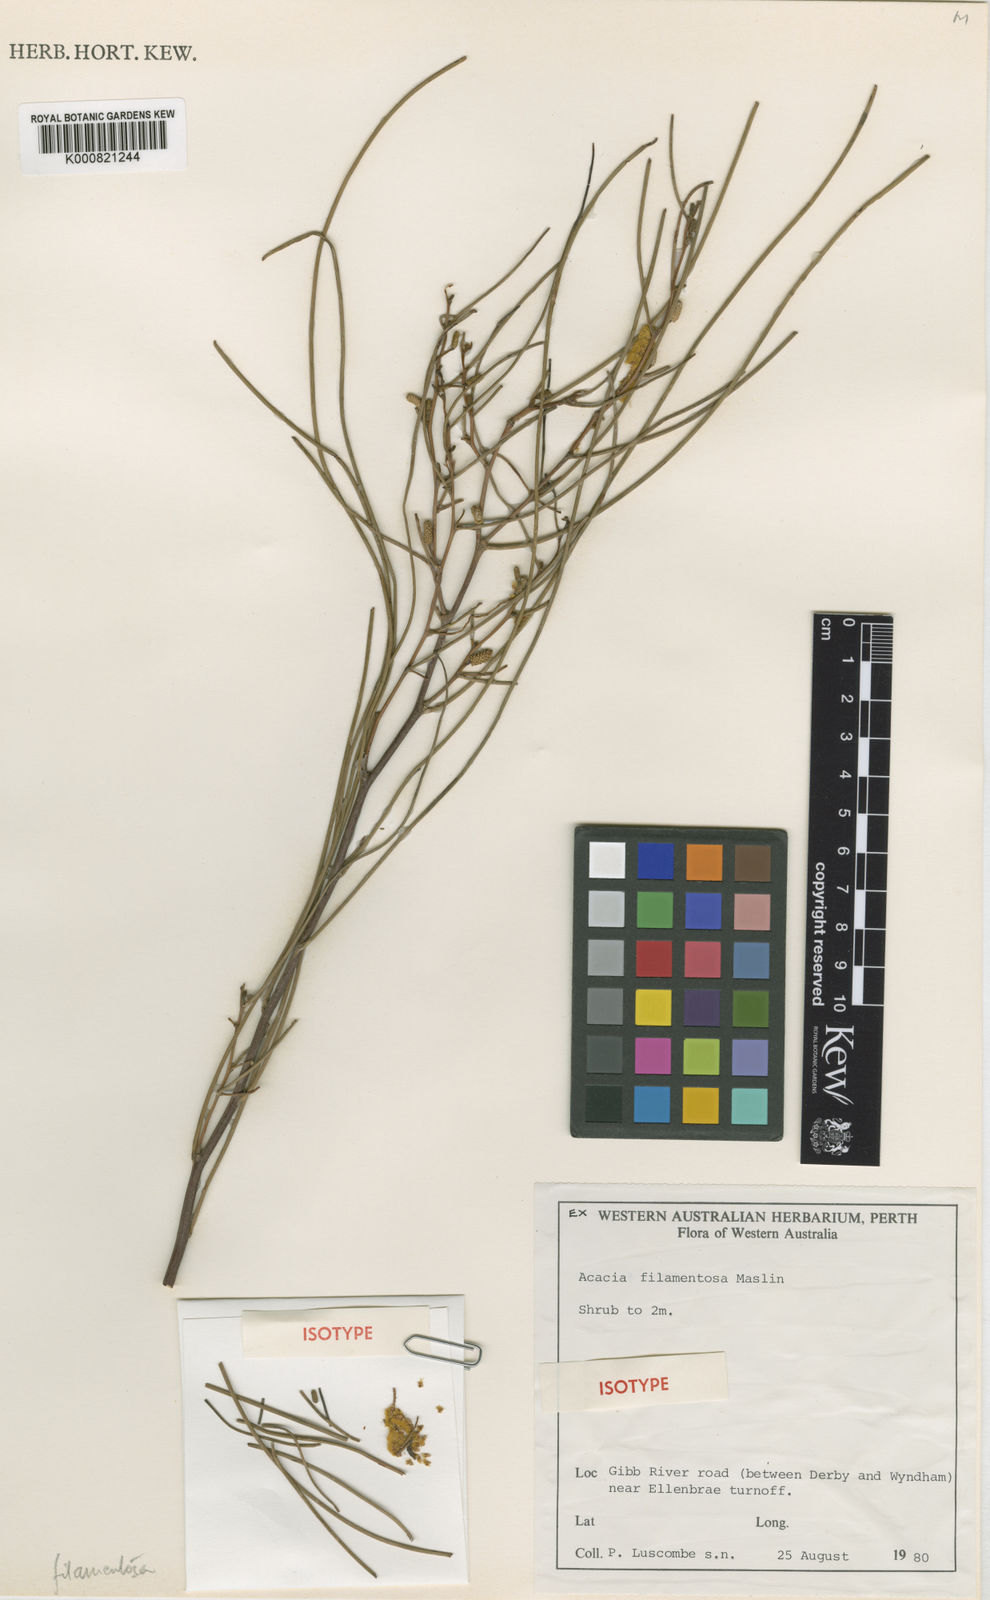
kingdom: Plantae
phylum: Tracheophyta
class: Magnoliopsida
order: Fabales
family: Fabaceae
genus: Acacia
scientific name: Acacia filamentosa
